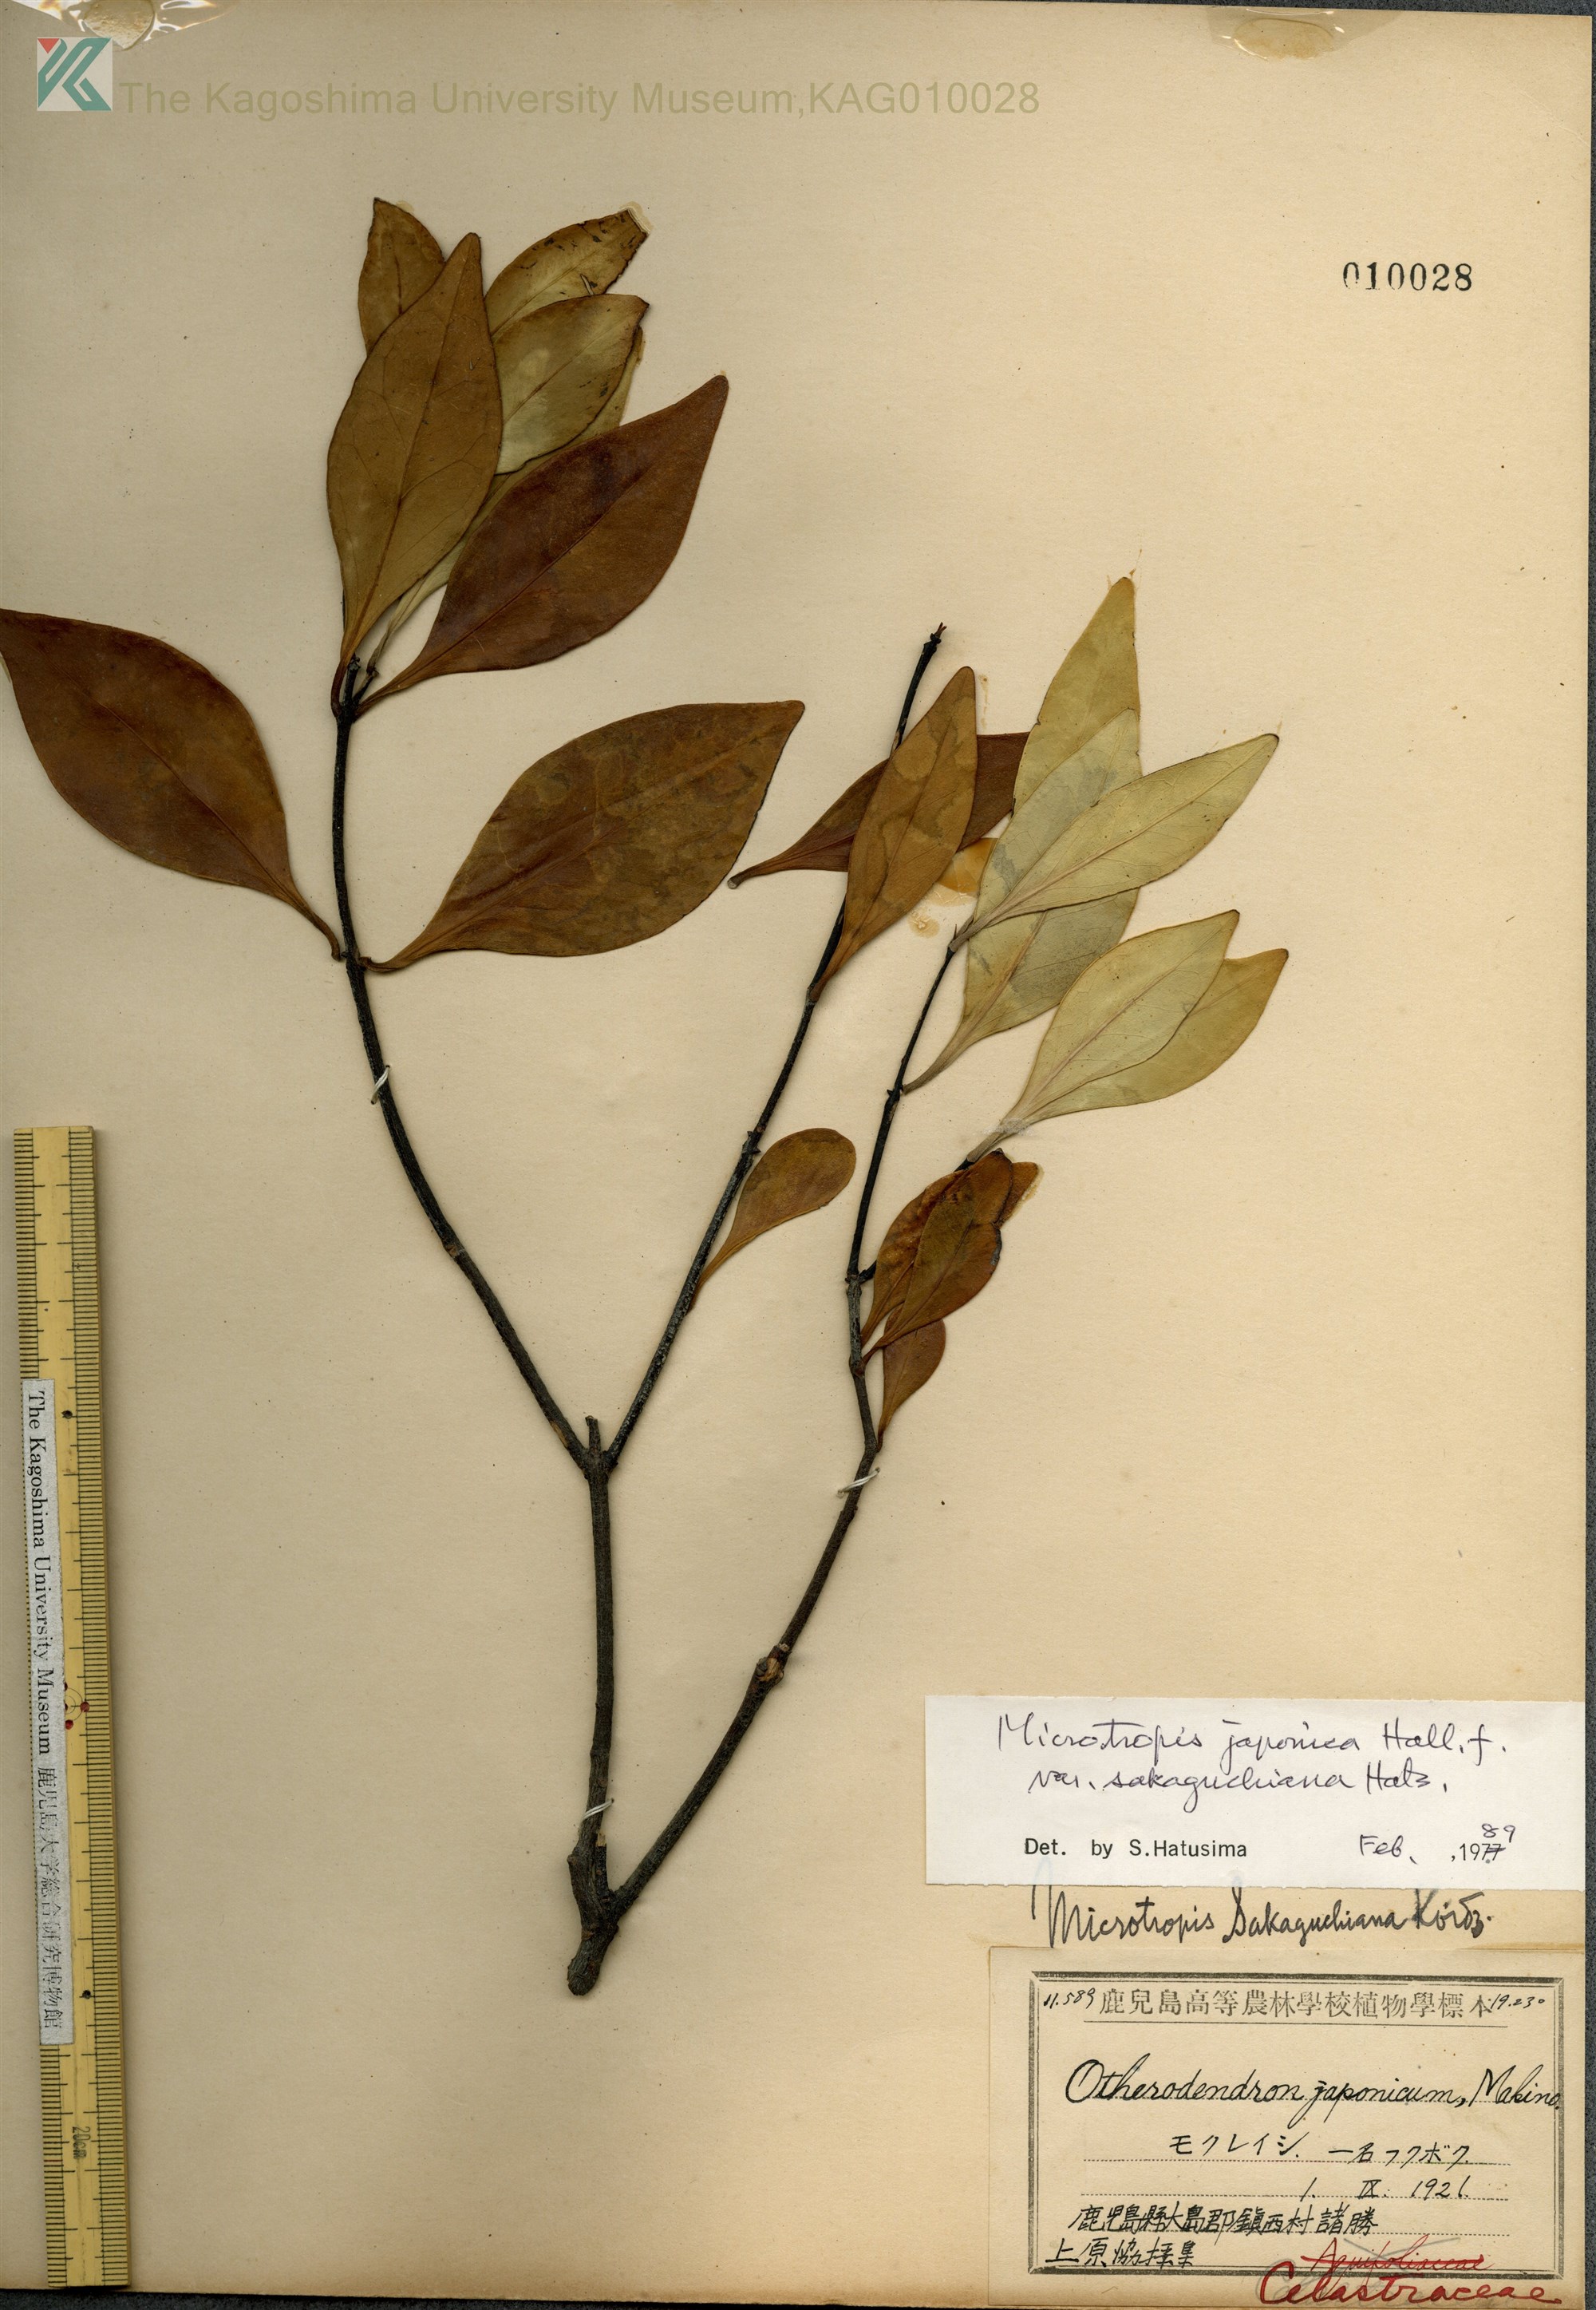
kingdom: Plantae
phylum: Tracheophyta
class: Magnoliopsida
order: Celastrales
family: Celastraceae
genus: Microtropis
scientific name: Microtropis japonica
